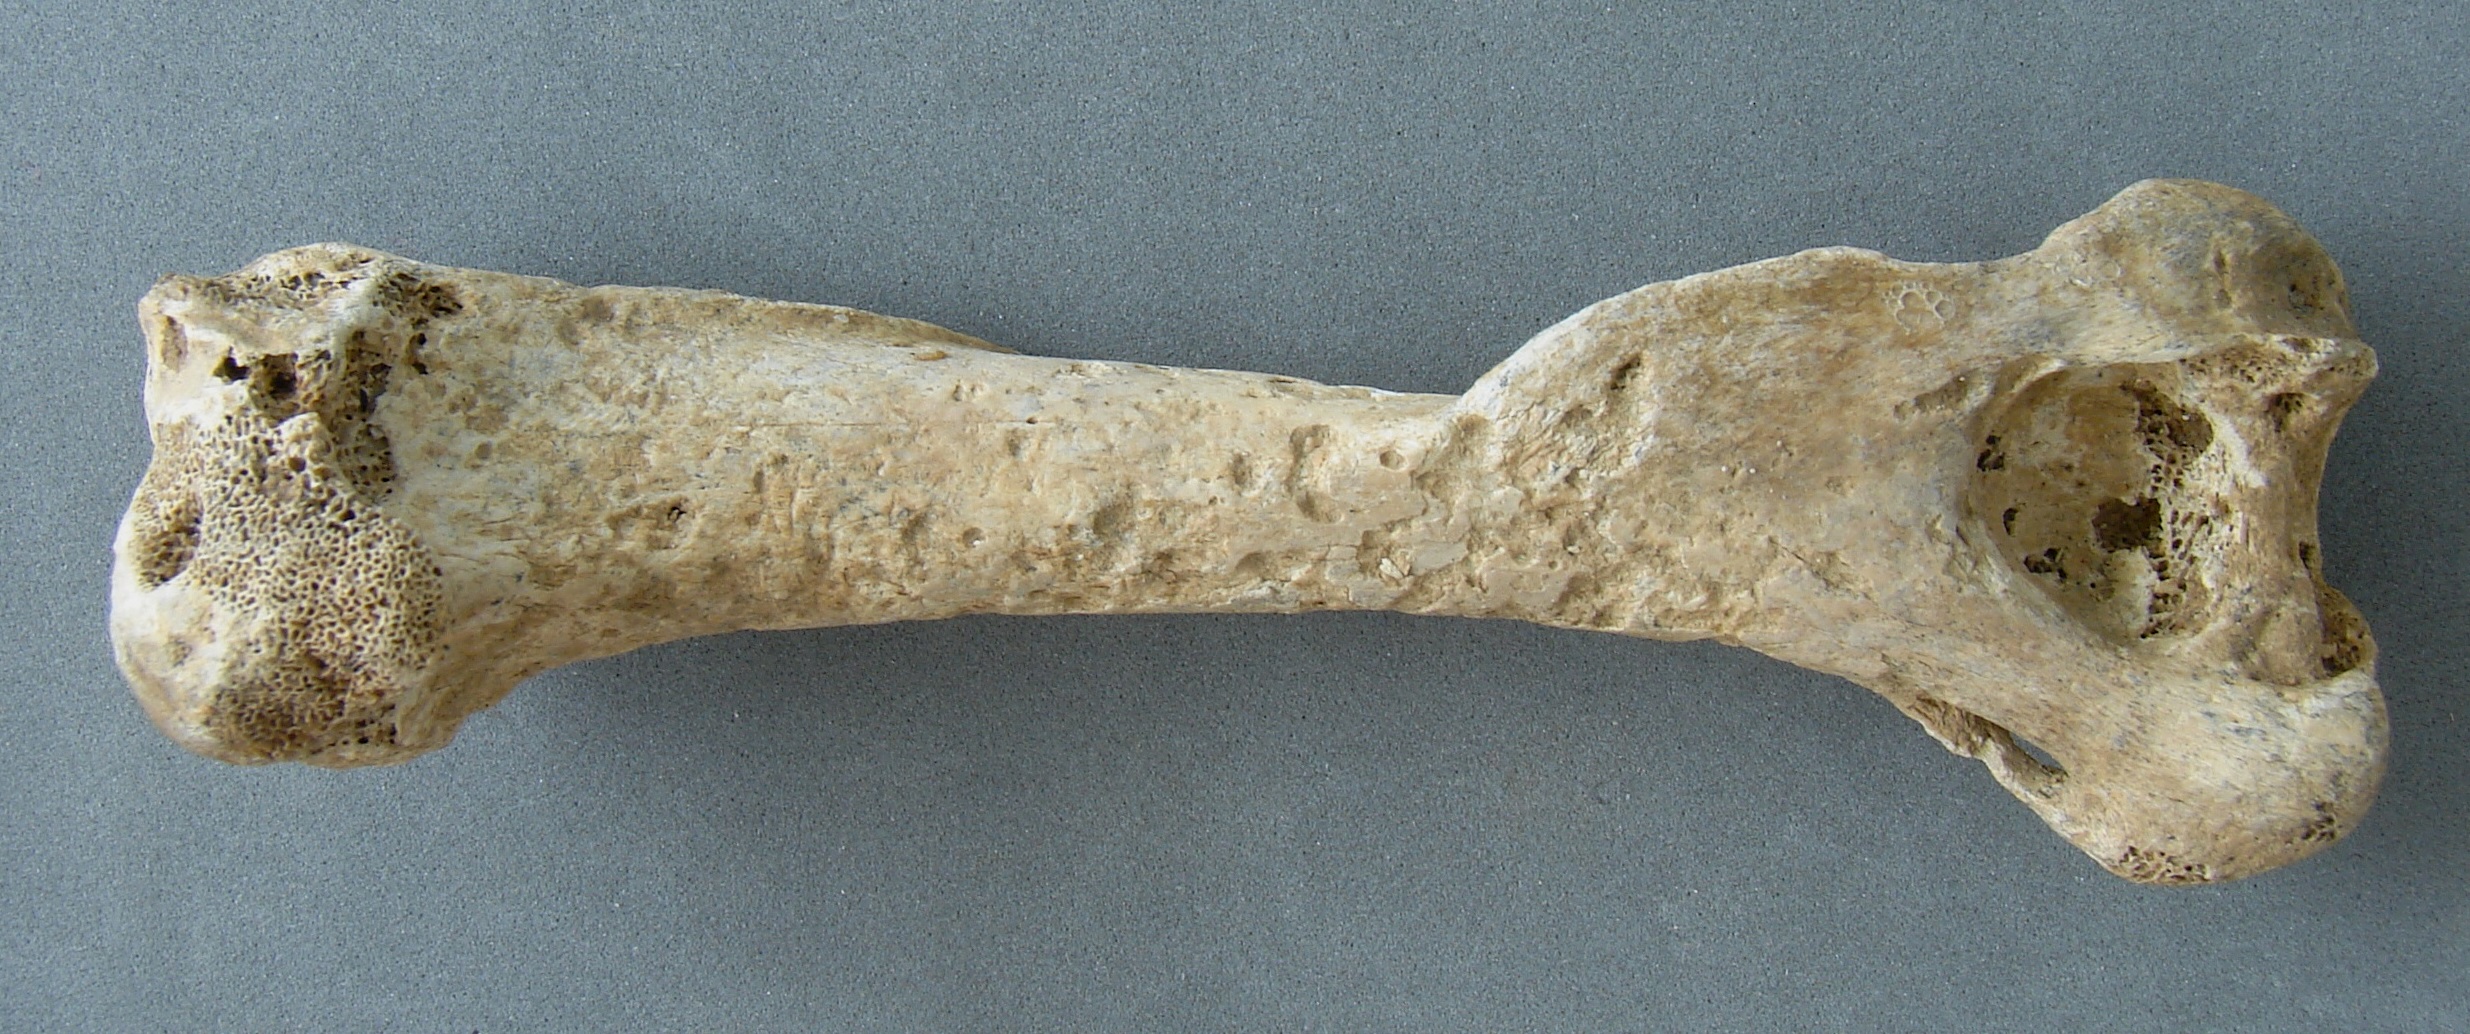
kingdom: Animalia
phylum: Chordata
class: Mammalia
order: Carnivora
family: Mustelidae
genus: Meles
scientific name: Meles meles
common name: Eurasian badger
